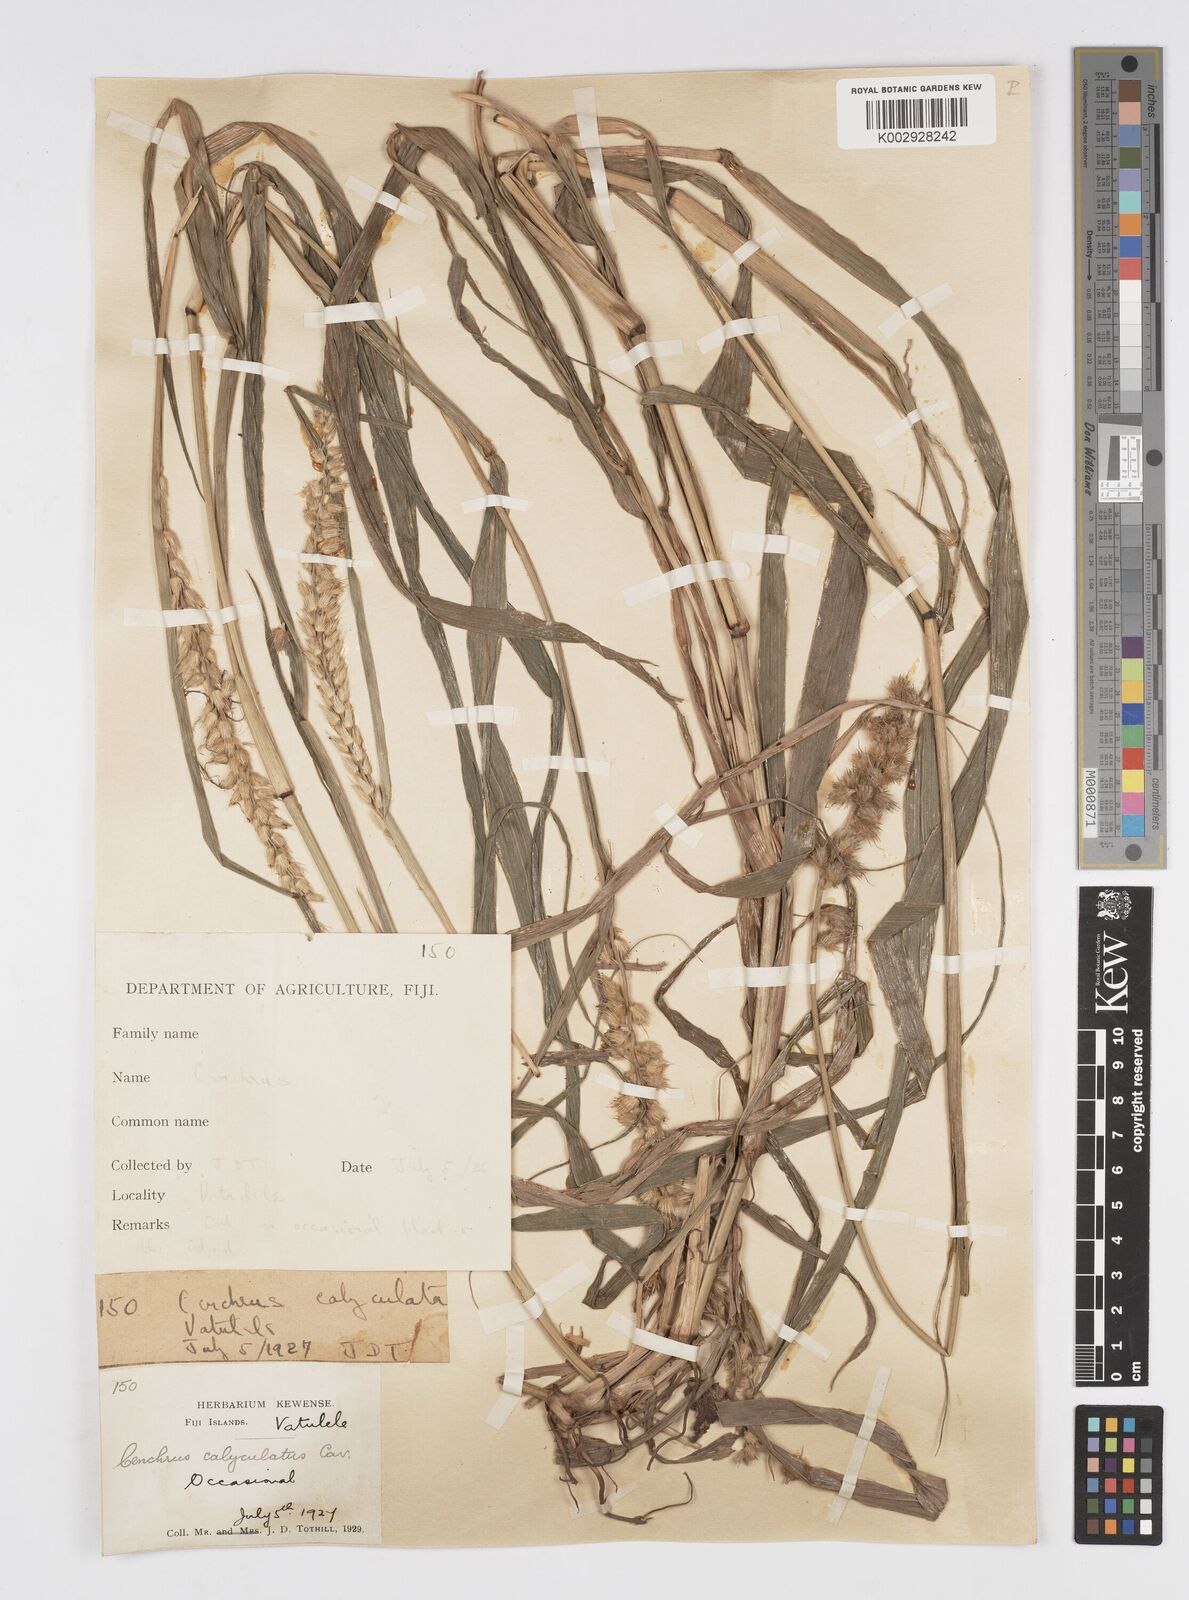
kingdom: Plantae
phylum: Tracheophyta
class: Liliopsida
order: Poales
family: Poaceae
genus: Cenchrus
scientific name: Cenchrus caliculatus
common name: Large bur grass
